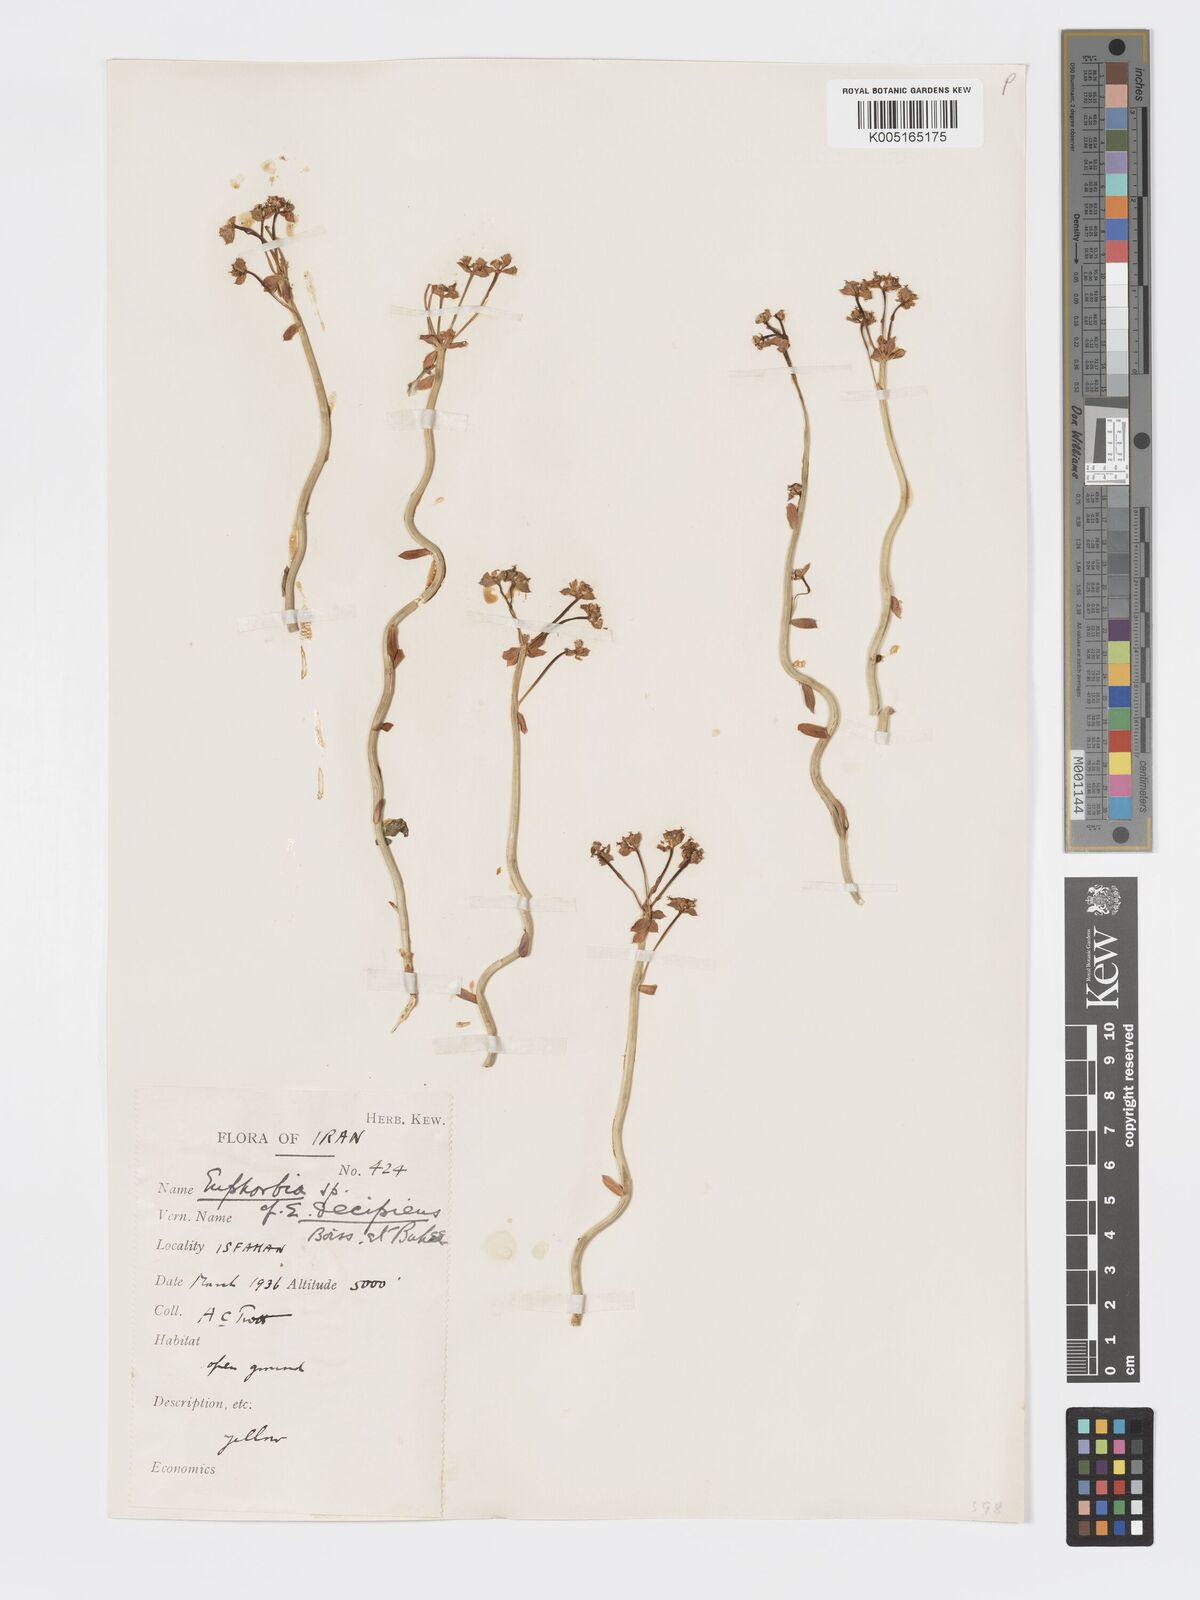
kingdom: Plantae
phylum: Tracheophyta
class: Magnoliopsida
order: Malpighiales
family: Euphorbiaceae
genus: Euphorbia
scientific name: Euphorbia polycaulis
